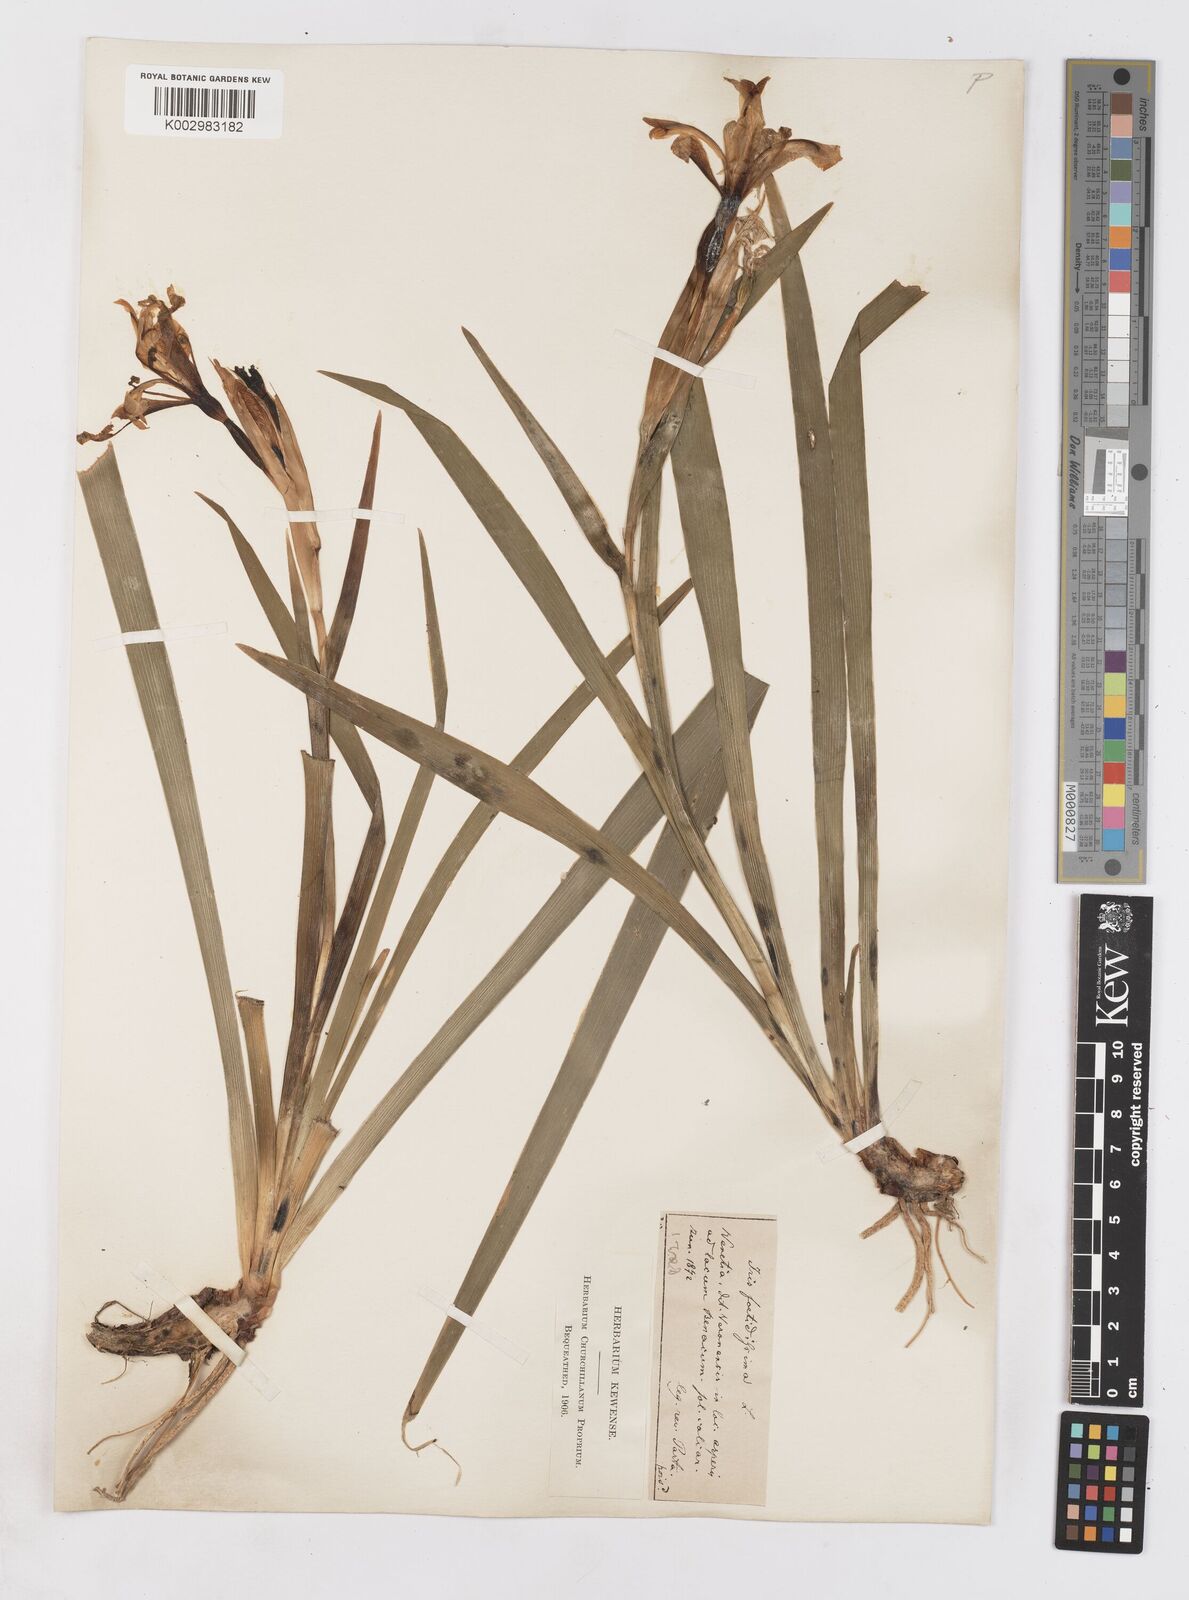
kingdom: Plantae
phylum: Tracheophyta
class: Liliopsida
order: Asparagales
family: Iridaceae
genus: Iris
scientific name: Iris foetidissima
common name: Stinking iris
